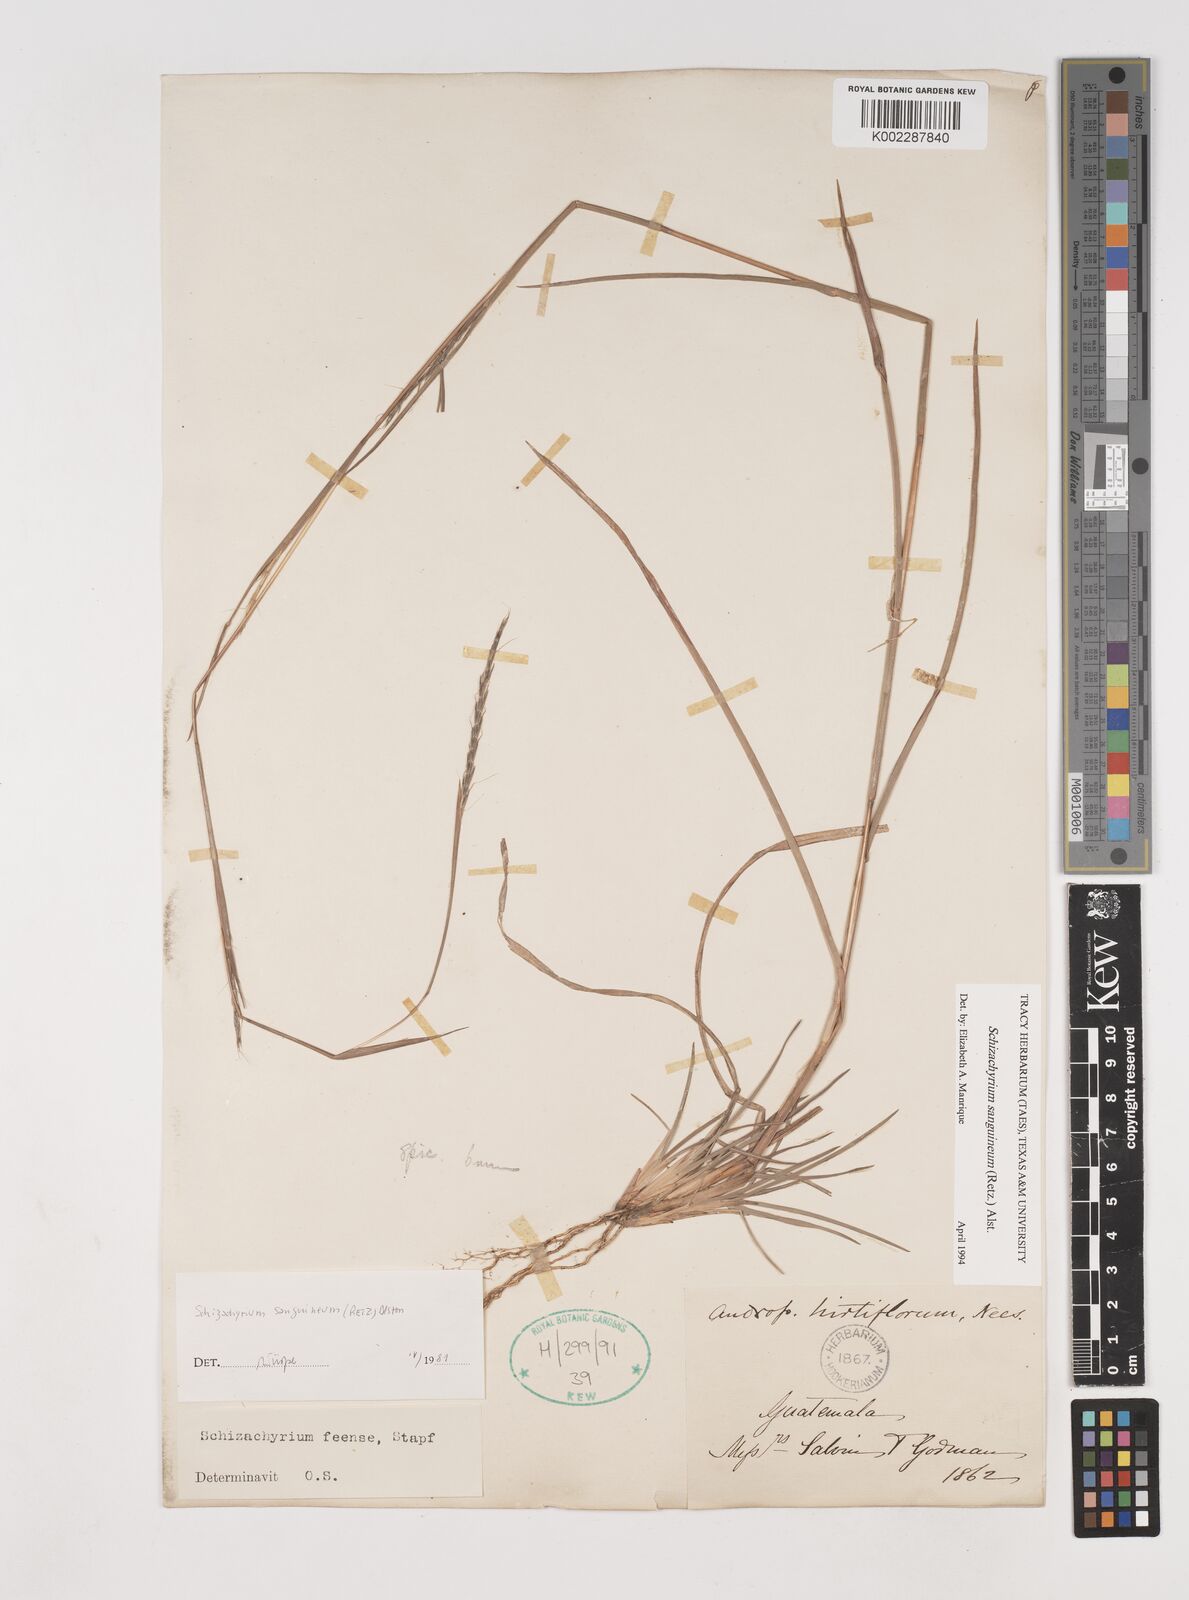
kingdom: Plantae
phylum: Tracheophyta
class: Liliopsida
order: Poales
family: Poaceae
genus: Schizachyrium
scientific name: Schizachyrium sanguineum
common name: Crimson bluestem
